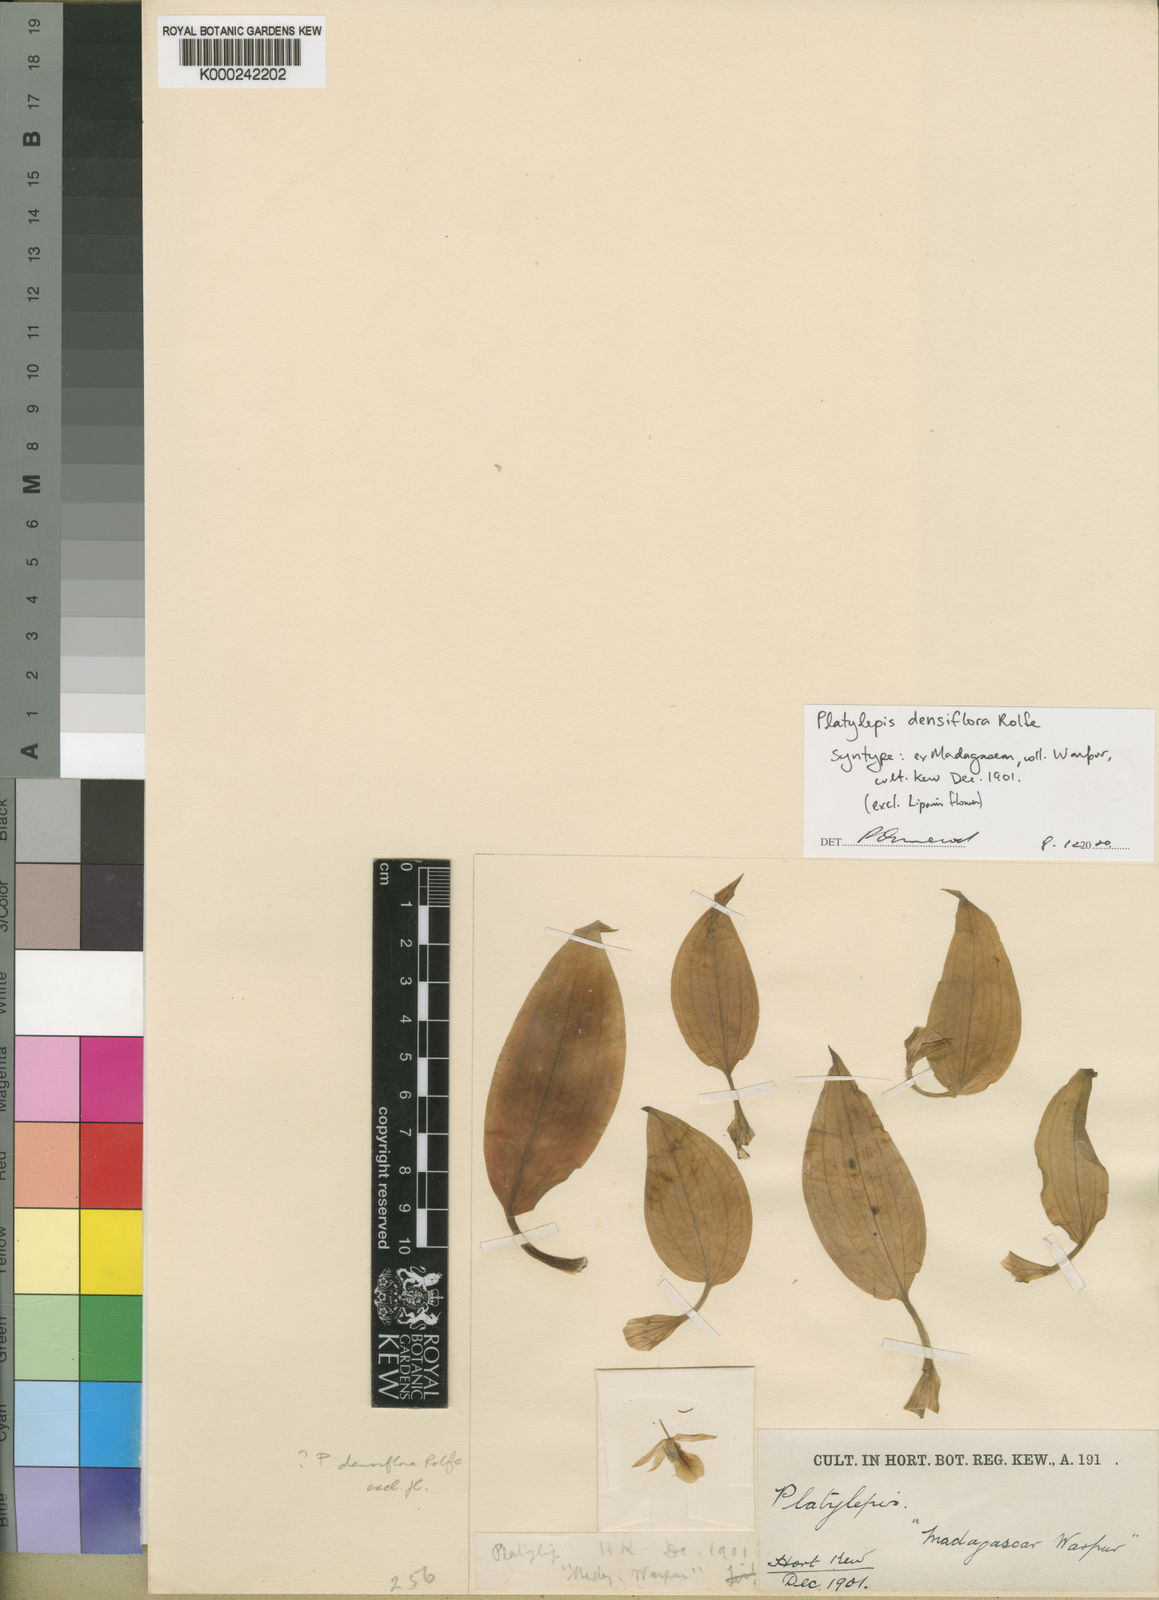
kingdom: Plantae
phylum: Tracheophyta
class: Liliopsida
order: Asparagales
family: Orchidaceae
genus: Platylepis
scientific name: Platylepis densiflora
